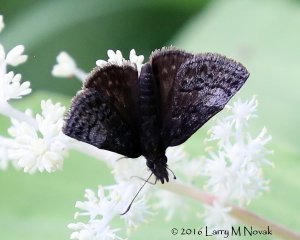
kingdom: Animalia
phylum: Arthropoda
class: Insecta
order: Lepidoptera
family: Hesperiidae
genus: Erynnis
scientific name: Erynnis icelus
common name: Dreamy Duskywing
